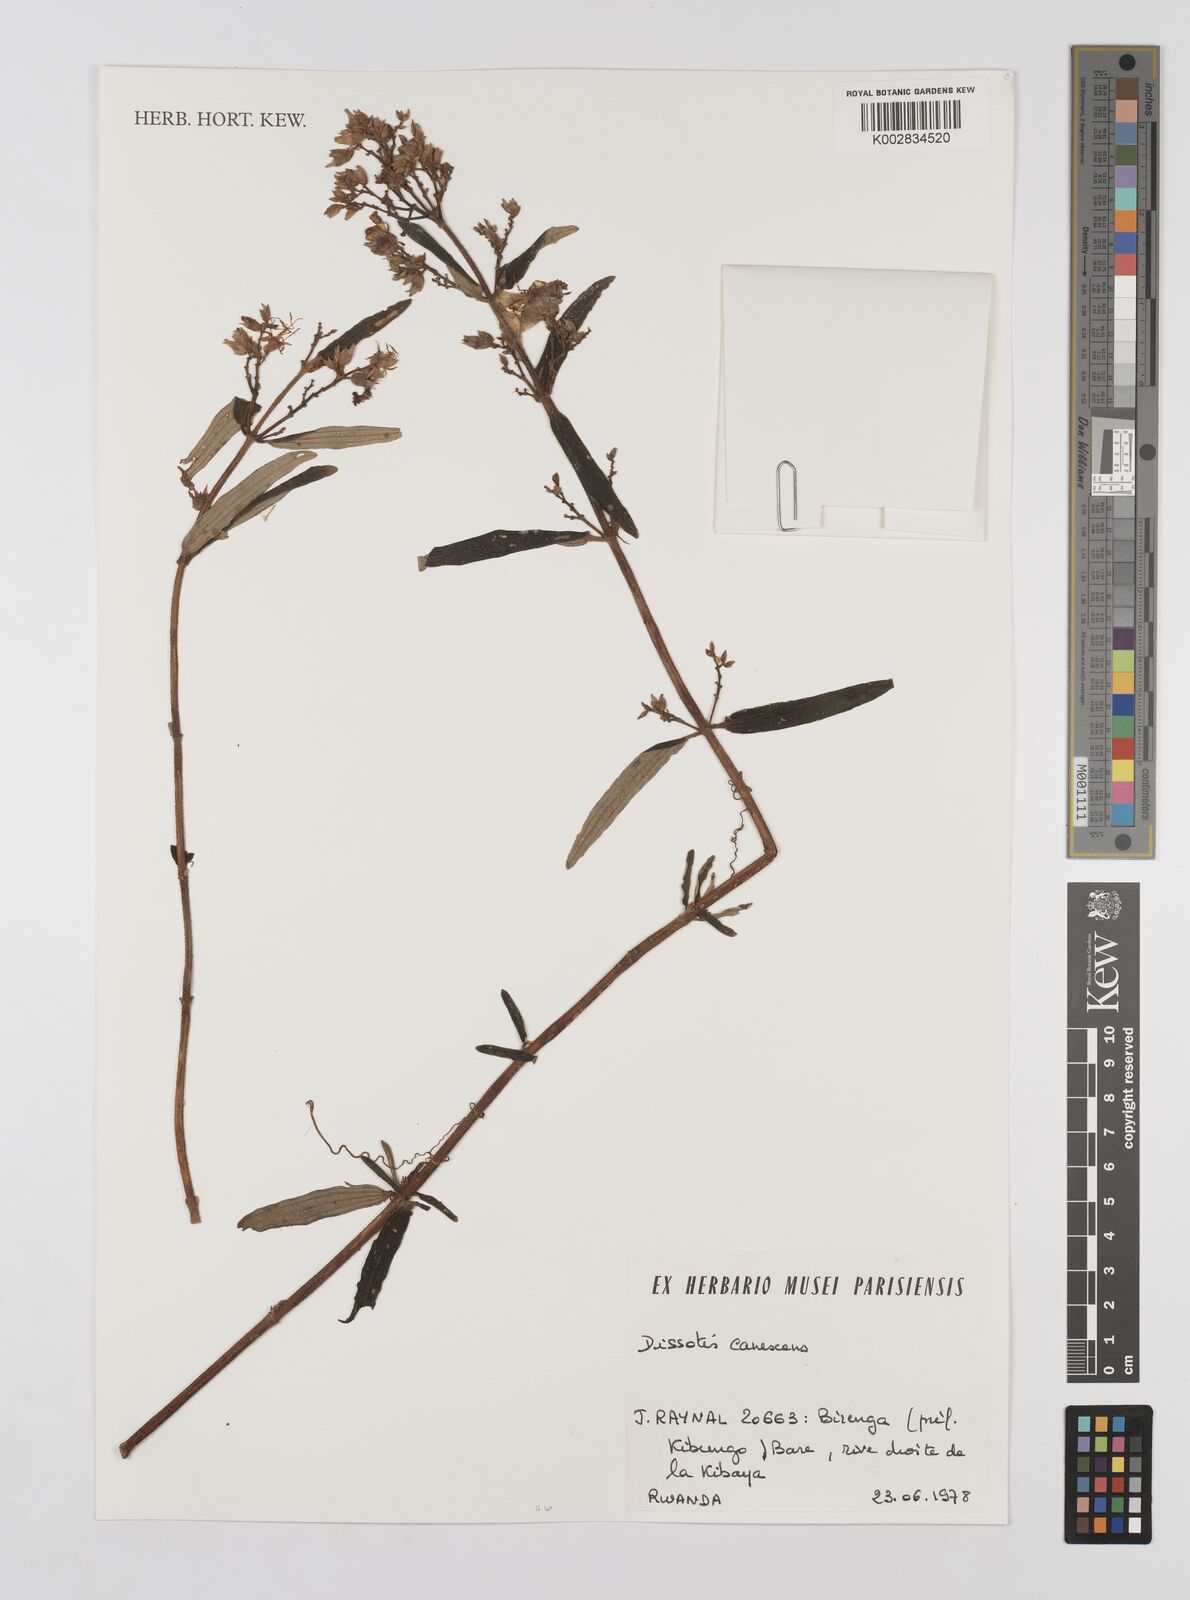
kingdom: Plantae
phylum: Tracheophyta
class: Magnoliopsida
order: Myrtales
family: Melastomataceae
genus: Argyrella
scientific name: Argyrella canescens
